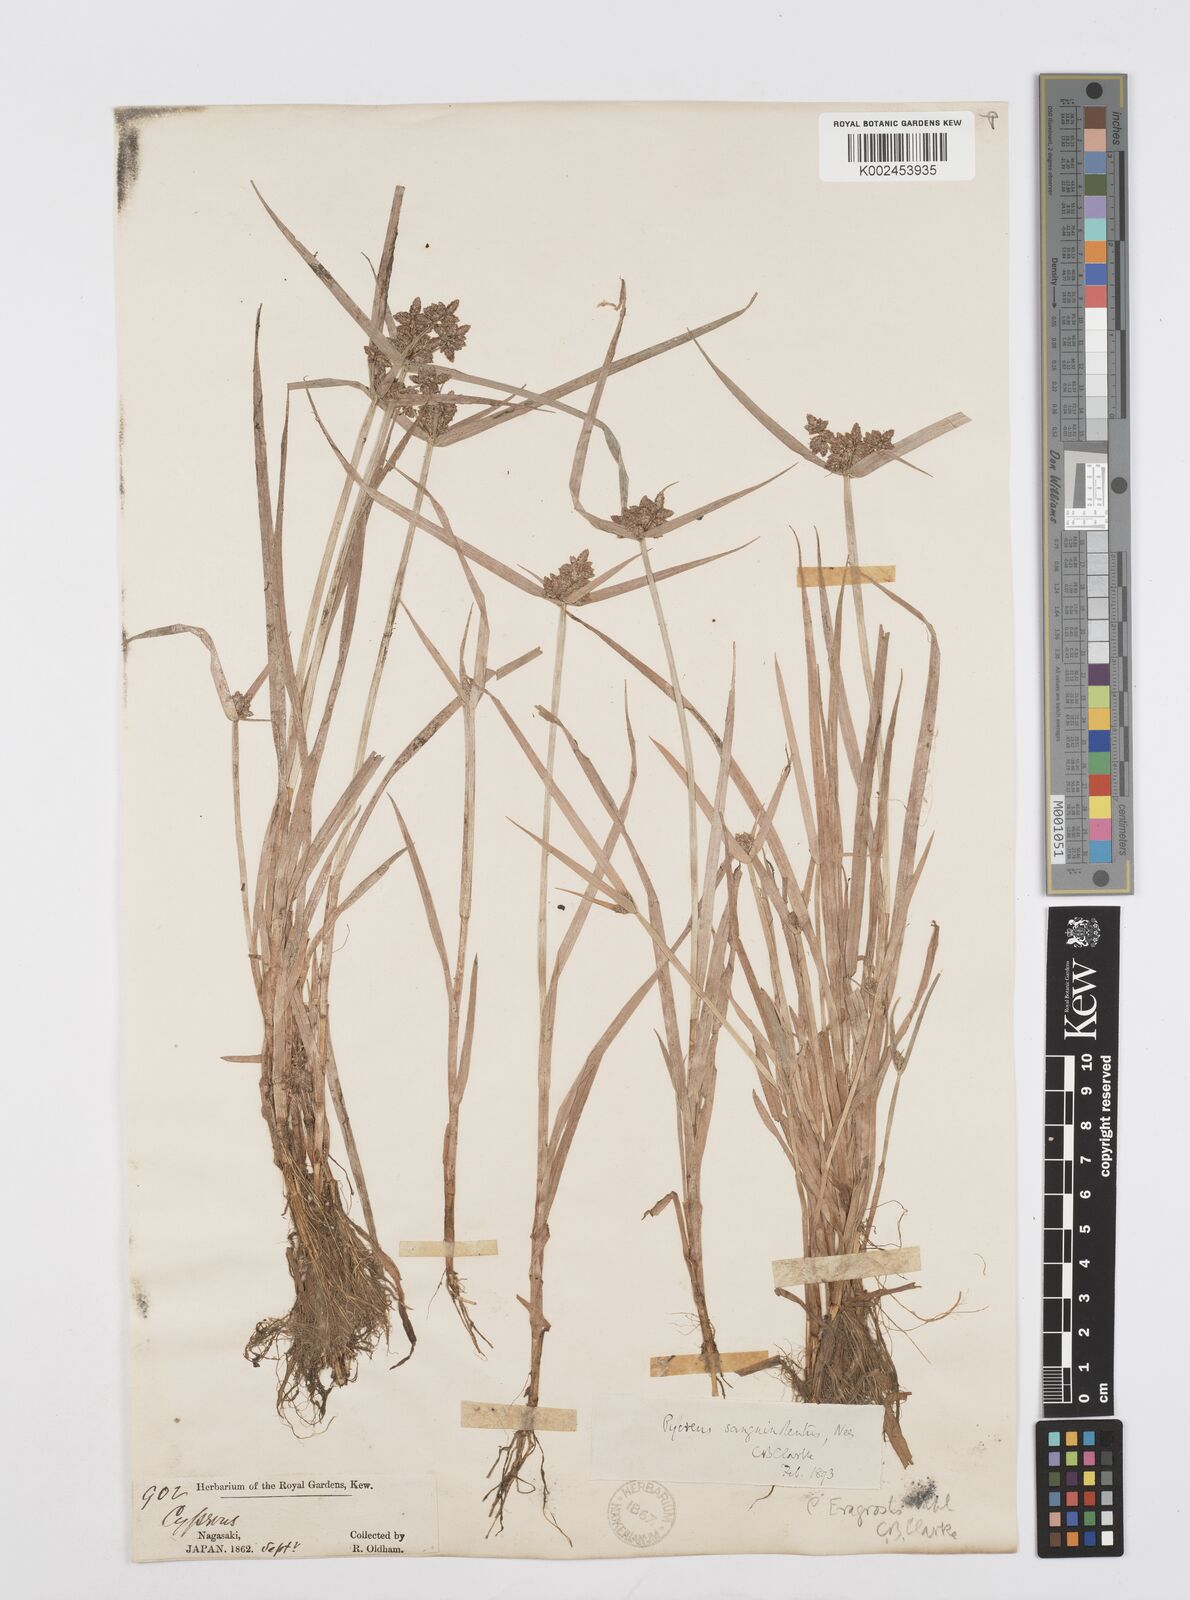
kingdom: Plantae
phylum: Tracheophyta
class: Liliopsida
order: Poales
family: Cyperaceae
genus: Cyperus
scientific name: Cyperus sanguinolentus
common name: Purpleglume flatsedge
